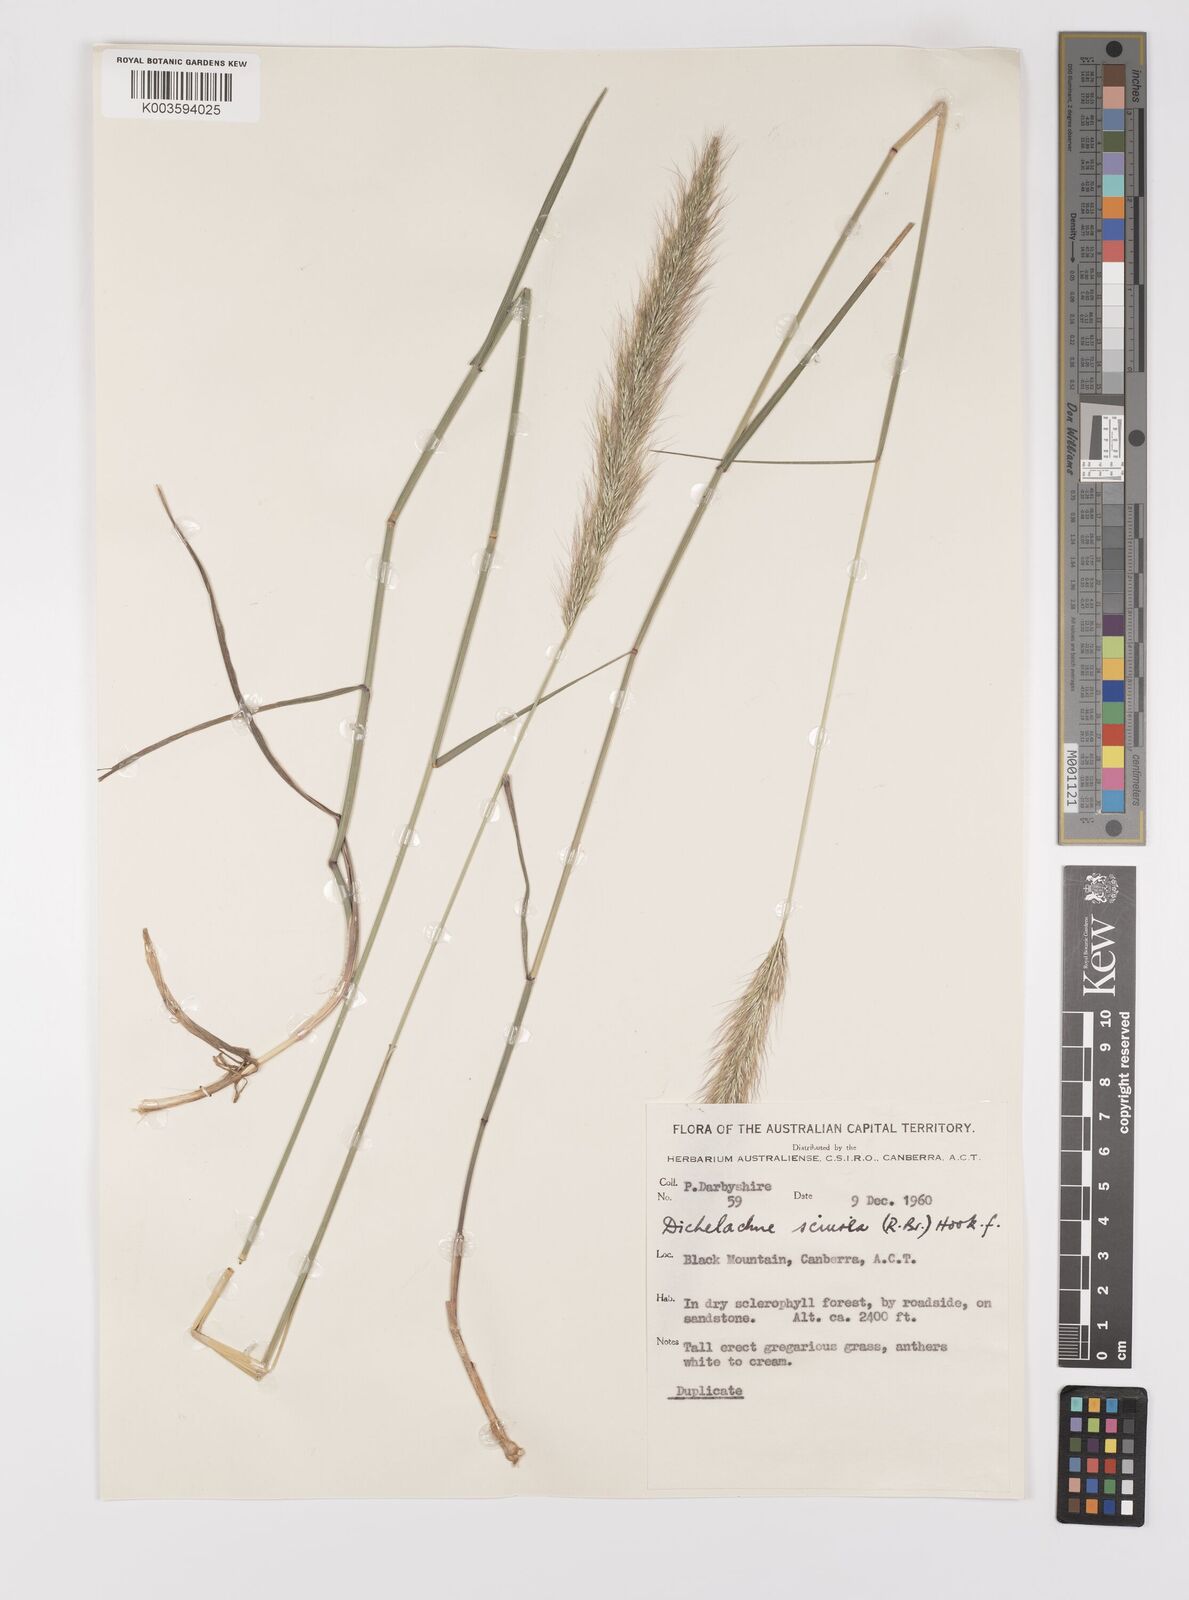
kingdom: Plantae
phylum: Tracheophyta
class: Liliopsida
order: Poales
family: Poaceae
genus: Dichelachne
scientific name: Dichelachne micrantha
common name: Plumegrass
